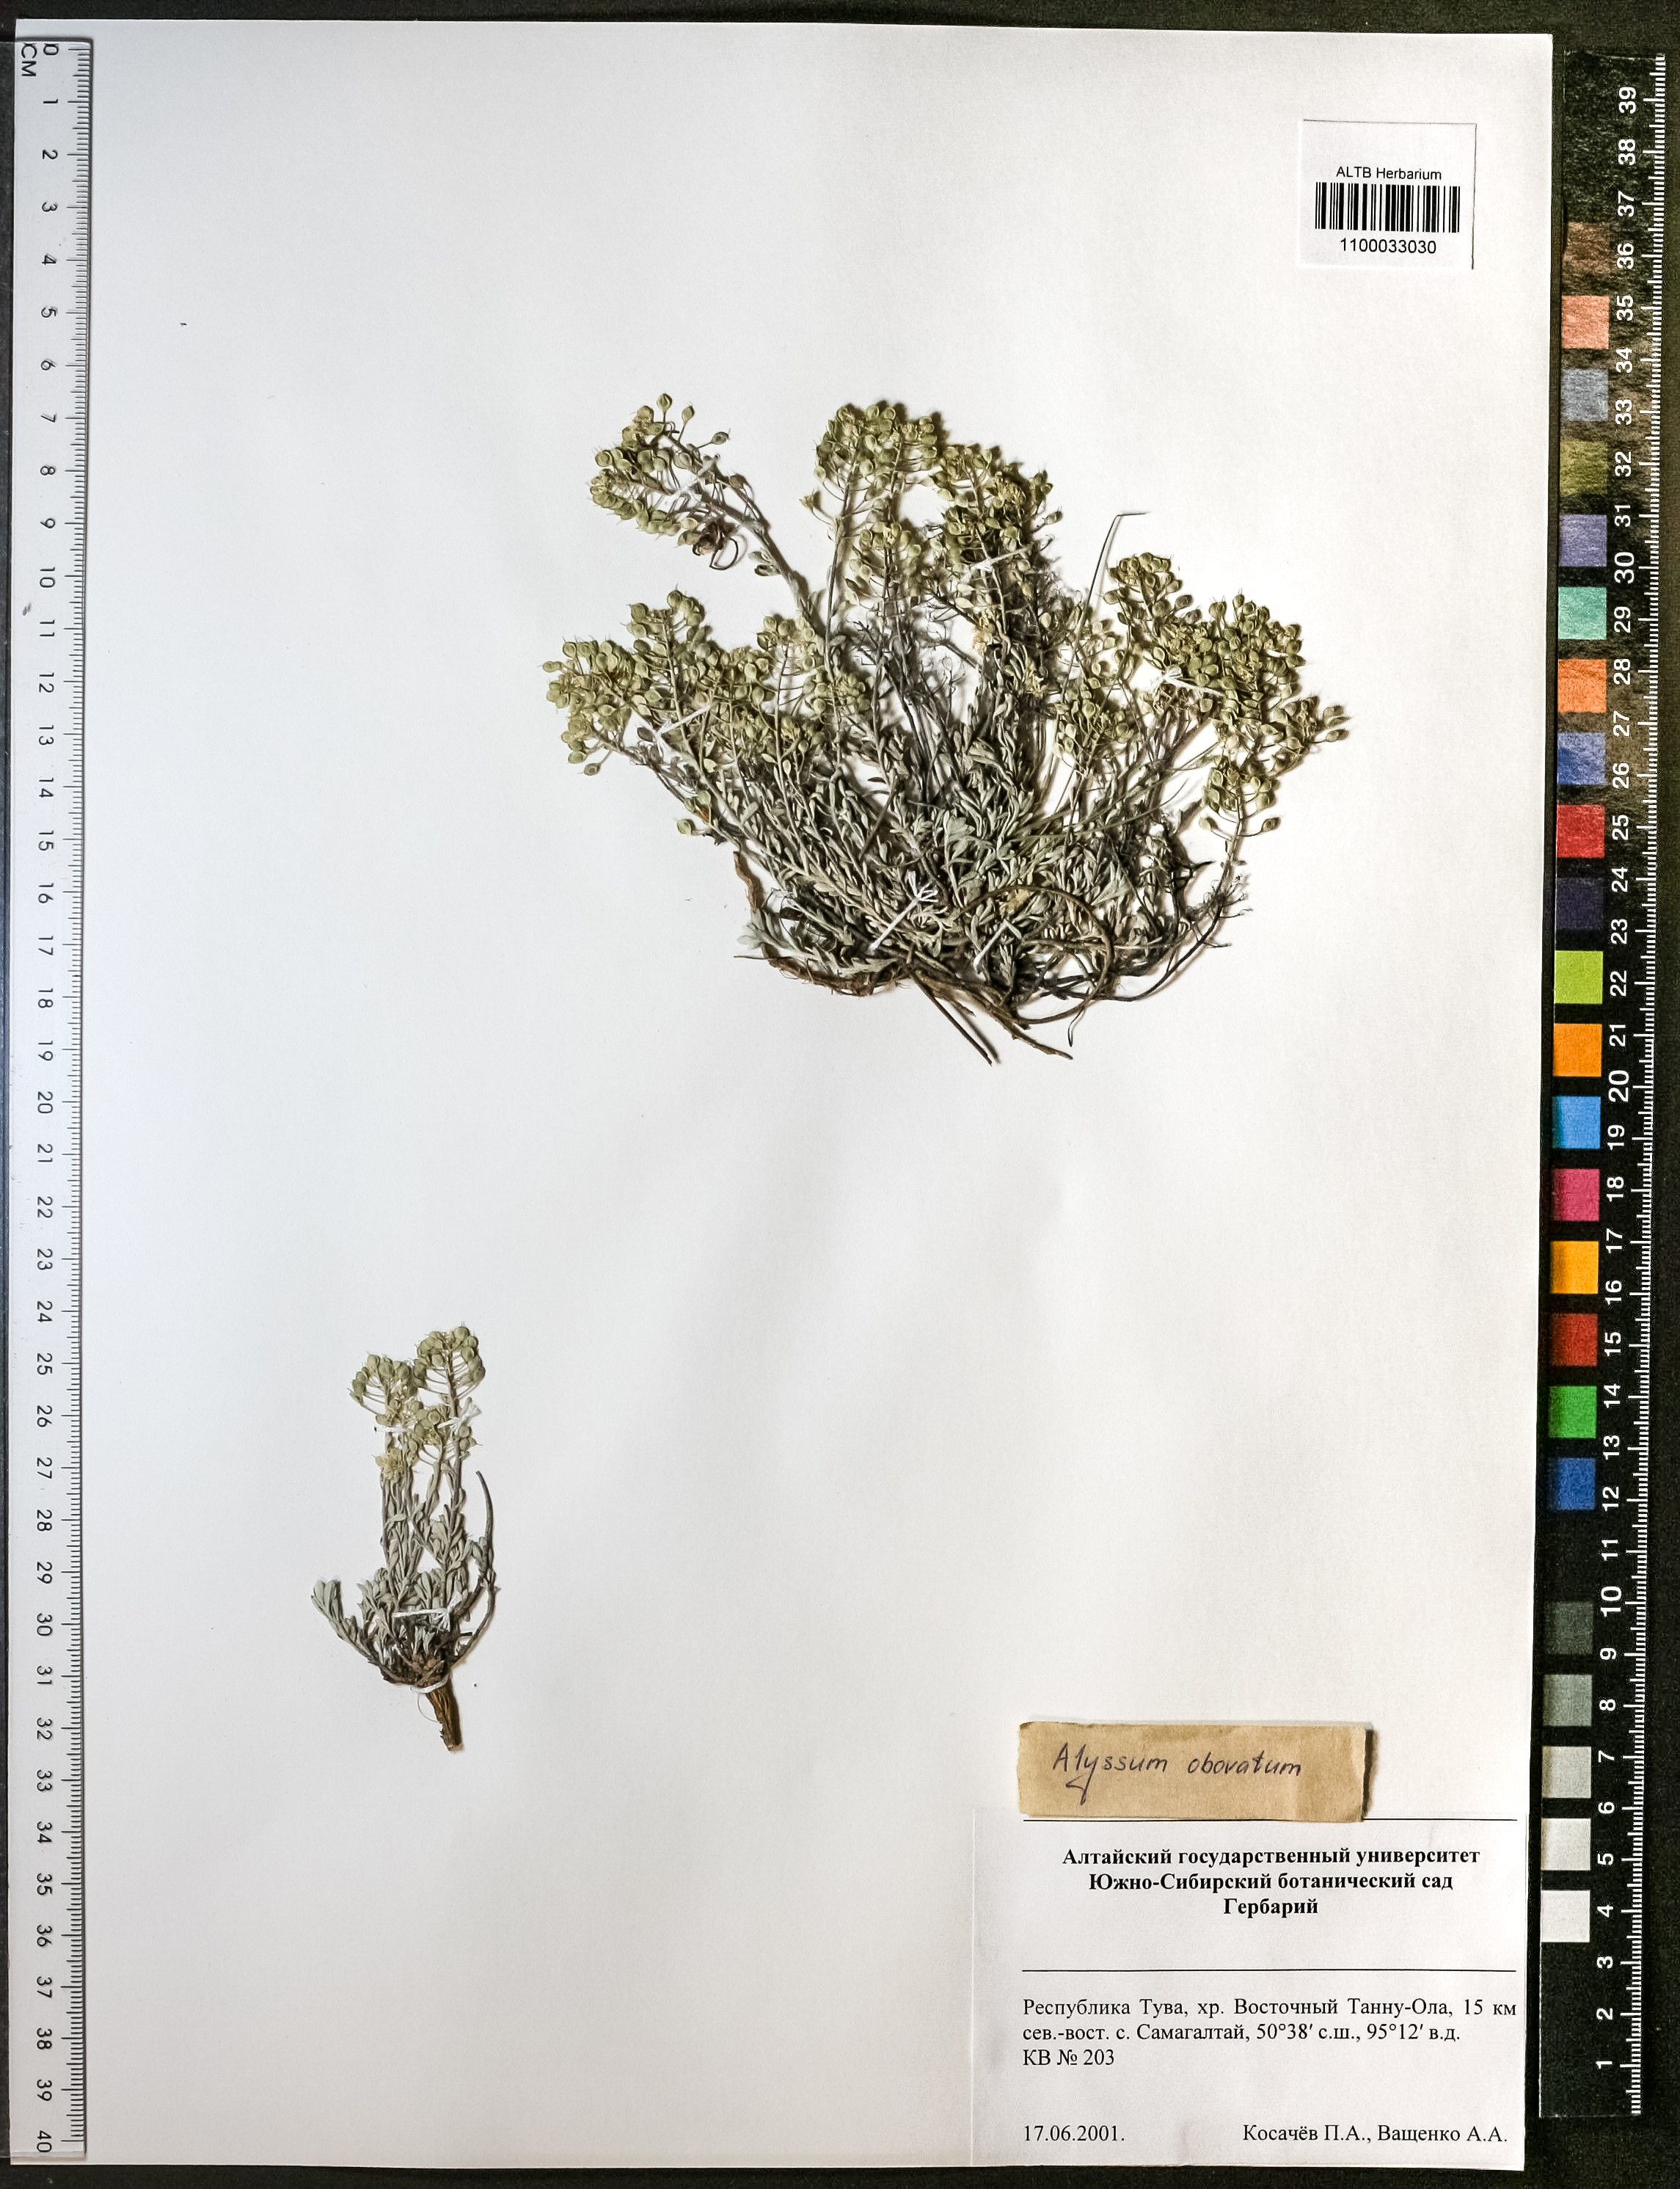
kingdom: Plantae
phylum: Tracheophyta
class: Magnoliopsida
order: Brassicales
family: Brassicaceae
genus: Odontarrhena
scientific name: Odontarrhena obovata
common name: American alyssum
